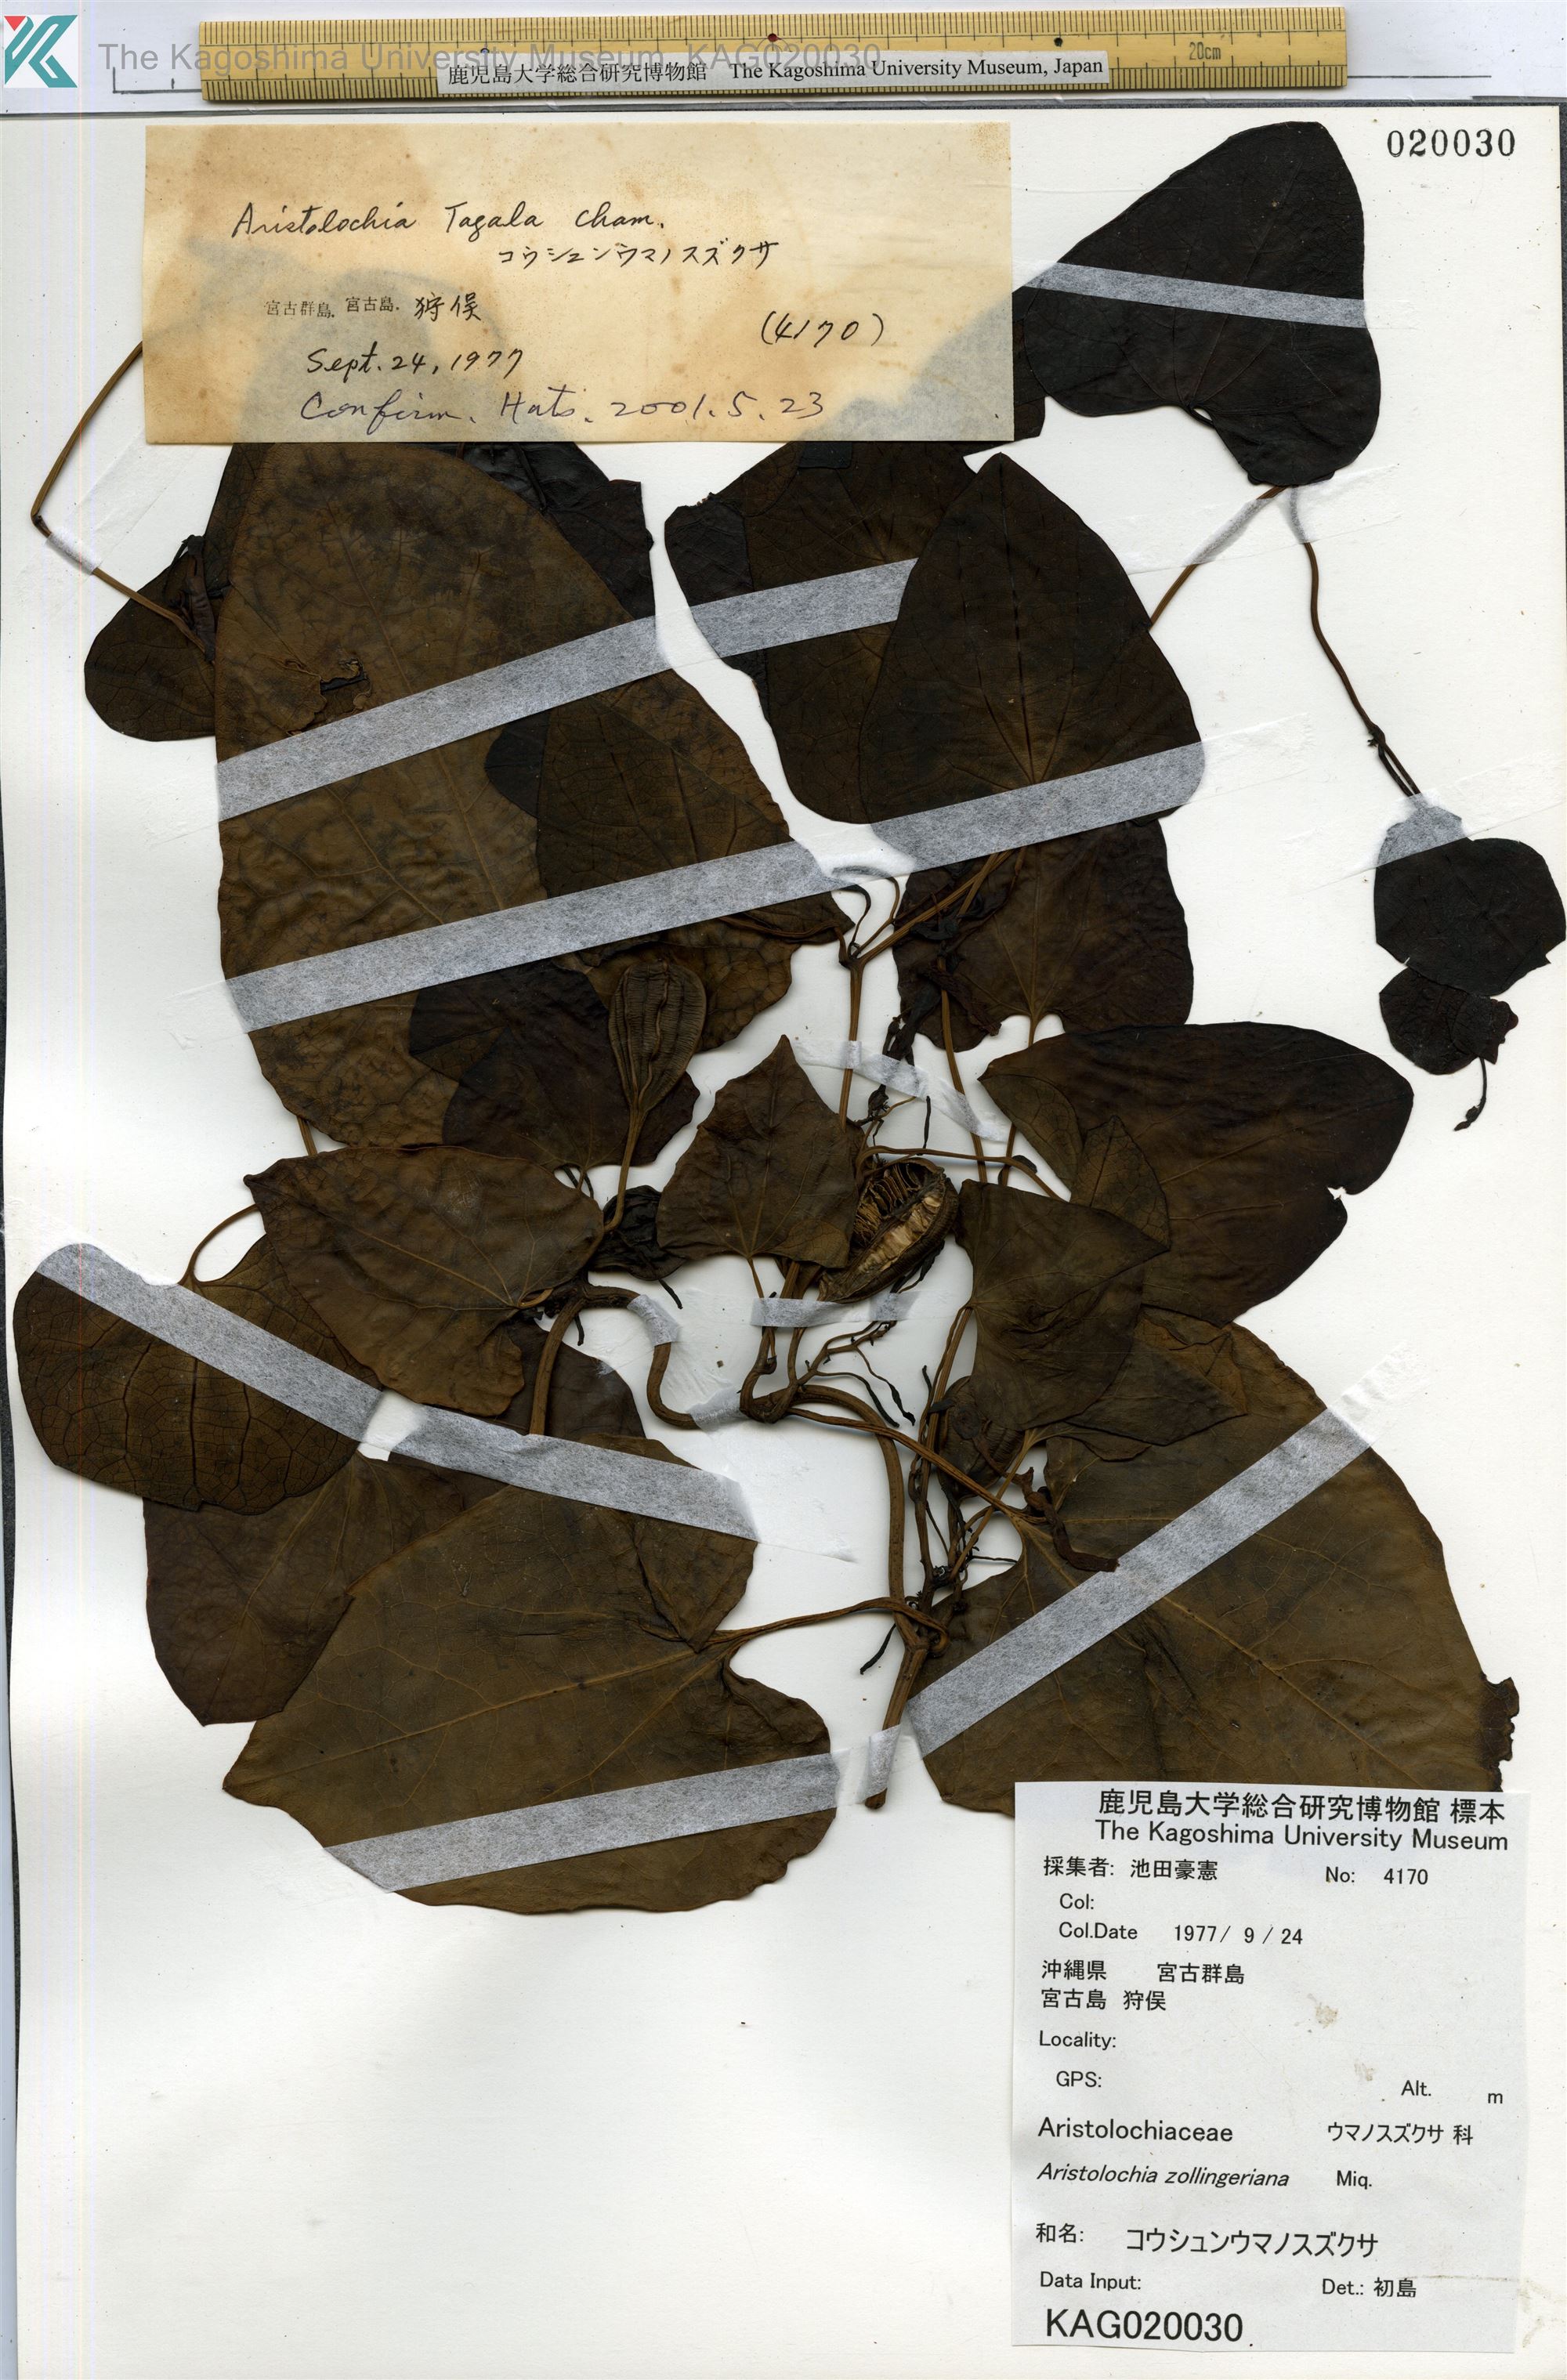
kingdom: Plantae
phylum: Tracheophyta
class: Magnoliopsida
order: Piperales
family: Aristolochiaceae
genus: Aristolochia
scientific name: Aristolochia zollingeriana
